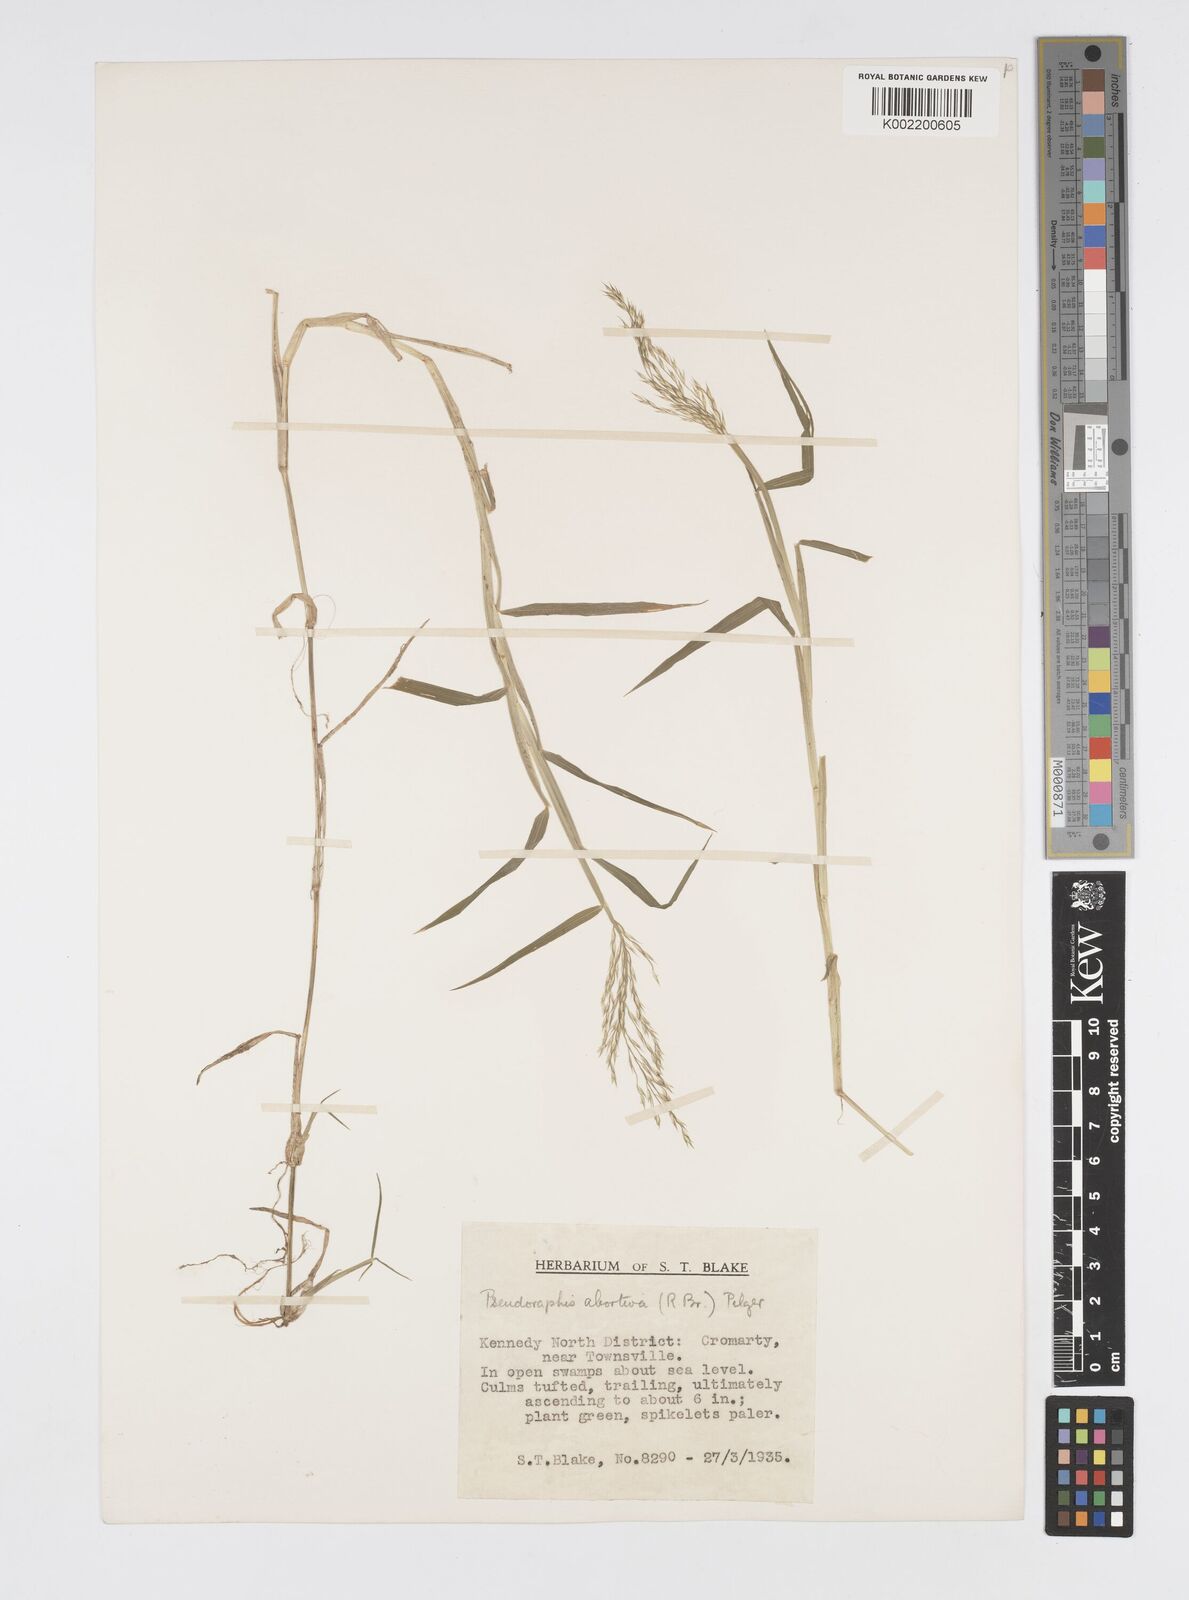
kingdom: Plantae
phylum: Tracheophyta
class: Liliopsida
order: Poales
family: Poaceae
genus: Pseudoraphis
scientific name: Pseudoraphis spinescens
